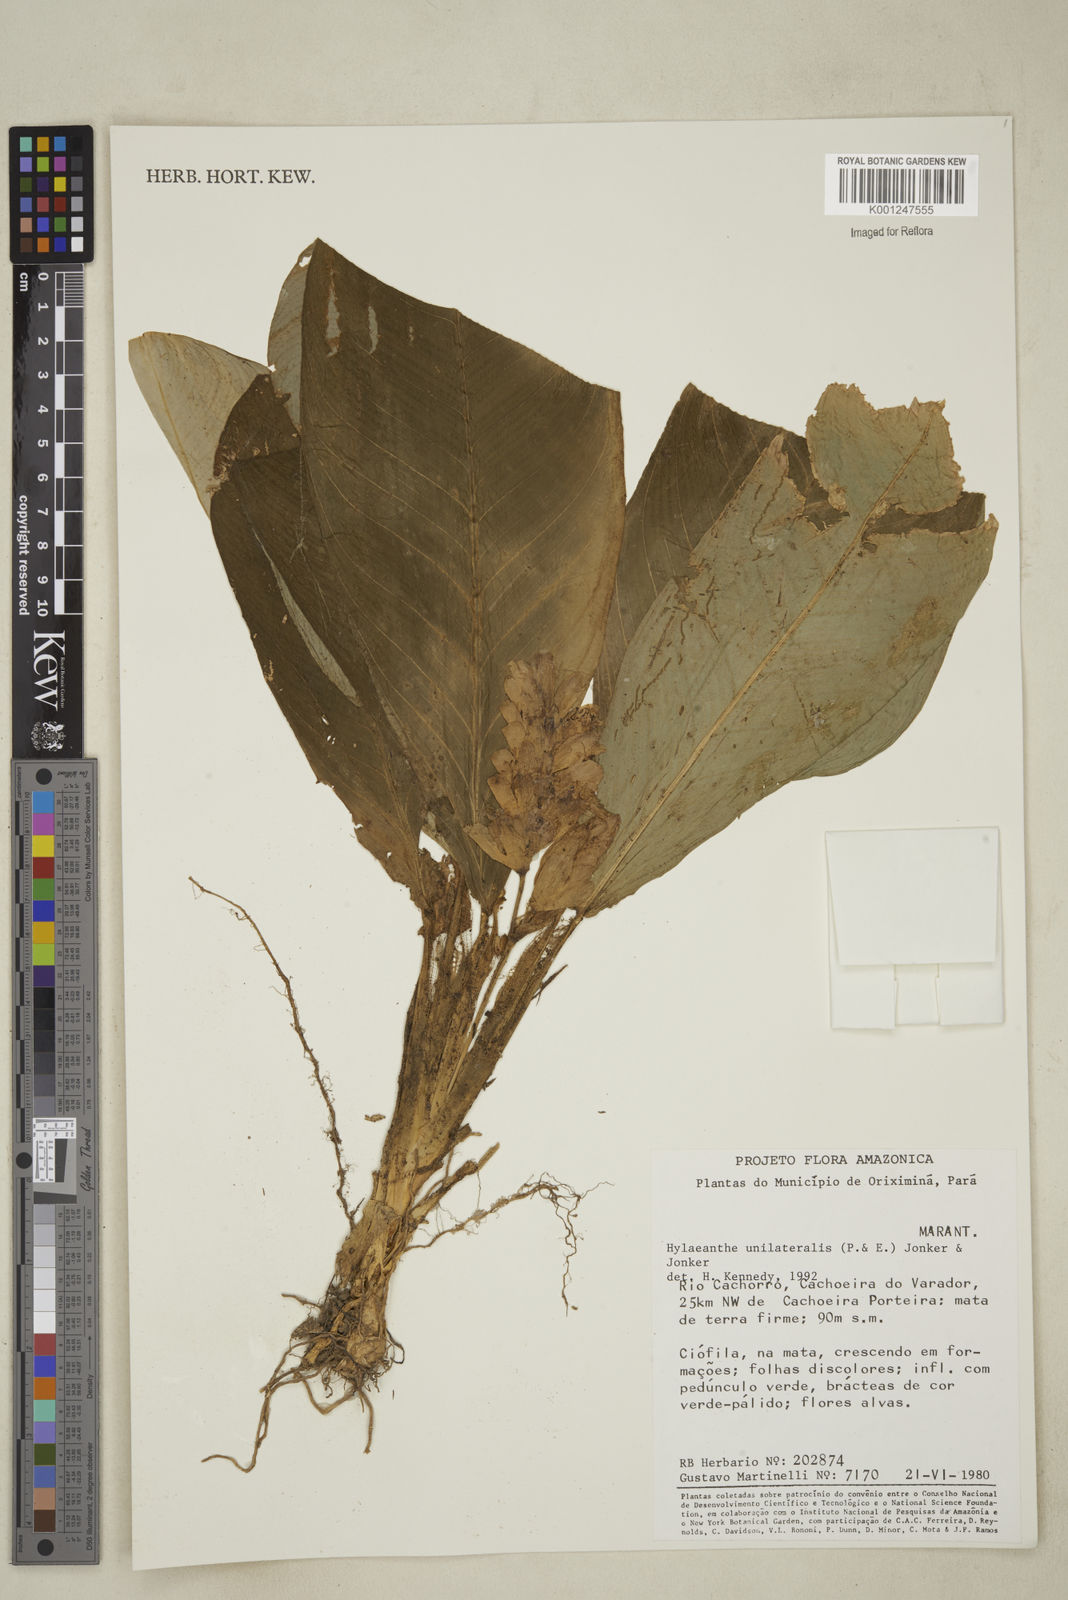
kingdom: Plantae
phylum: Tracheophyta
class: Liliopsida
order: Zingiberales
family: Marantaceae
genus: Hylaeanthe
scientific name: Hylaeanthe unilateralis
